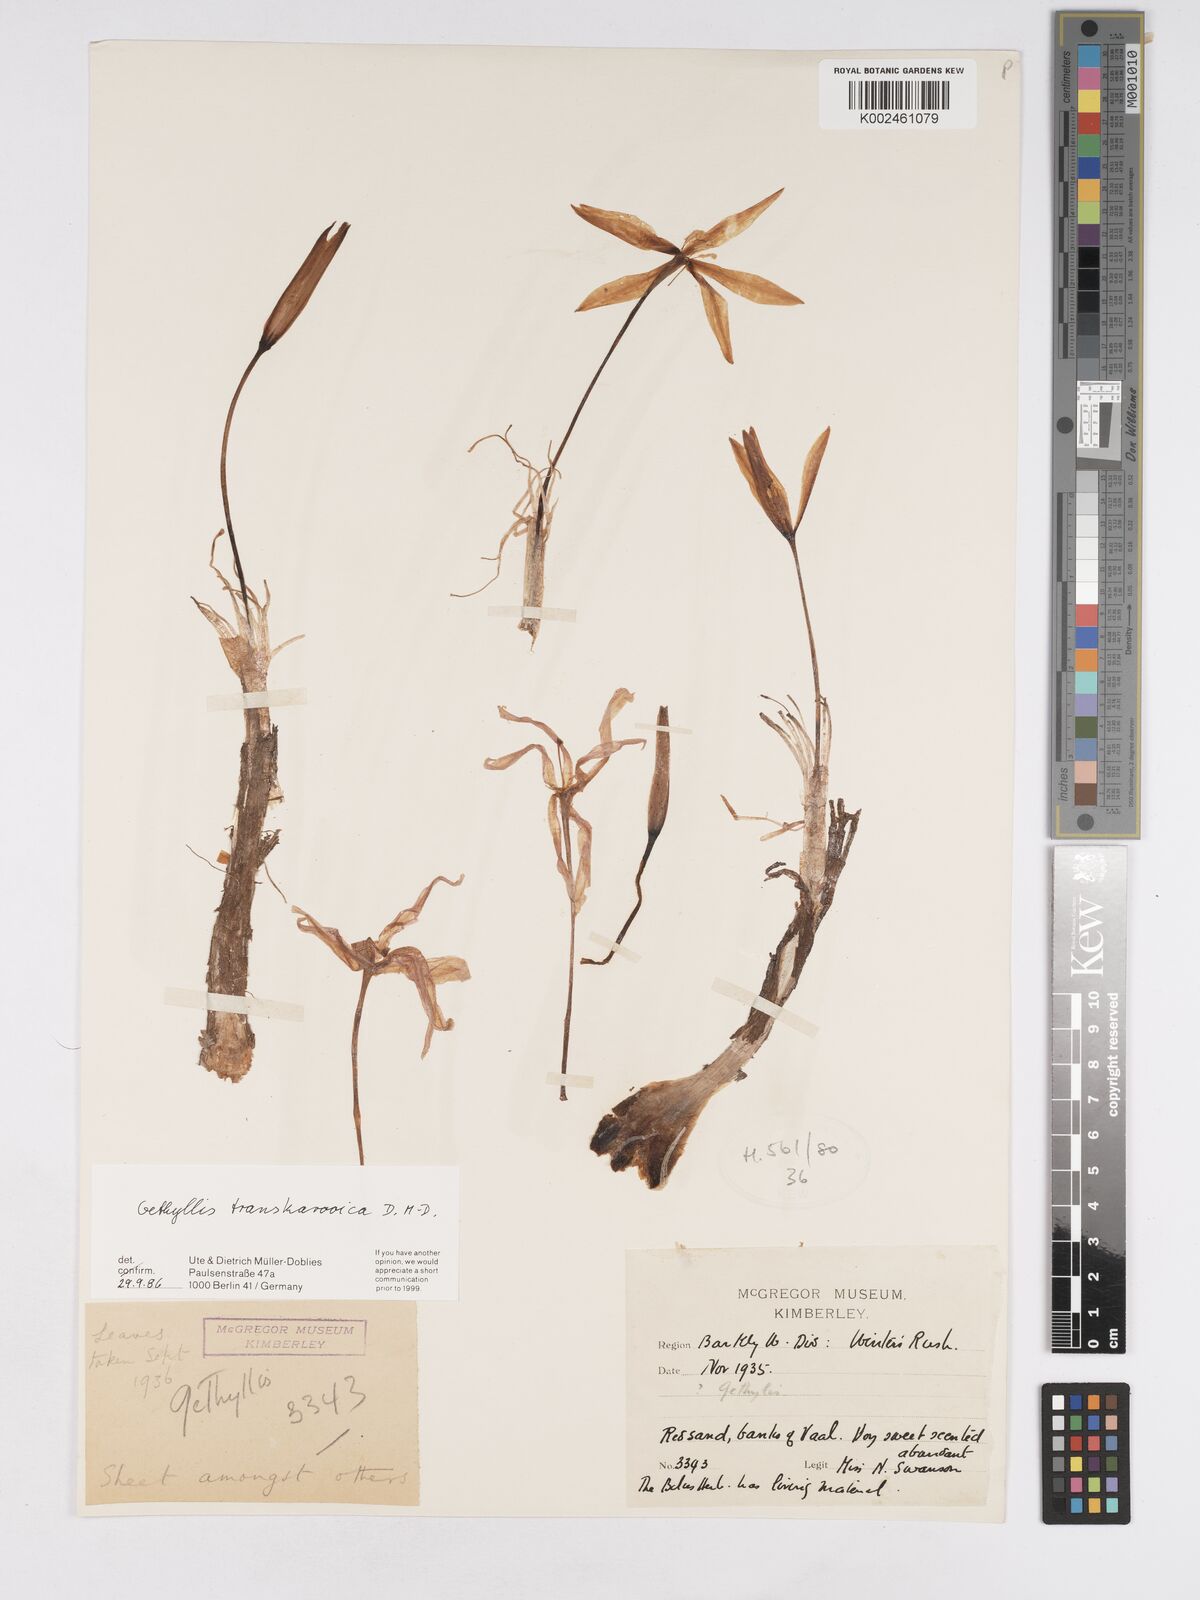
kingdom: Plantae
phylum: Tracheophyta
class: Liliopsida
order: Asparagales
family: Amaryllidaceae
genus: Gethyllis
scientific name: Gethyllis transkarooica
